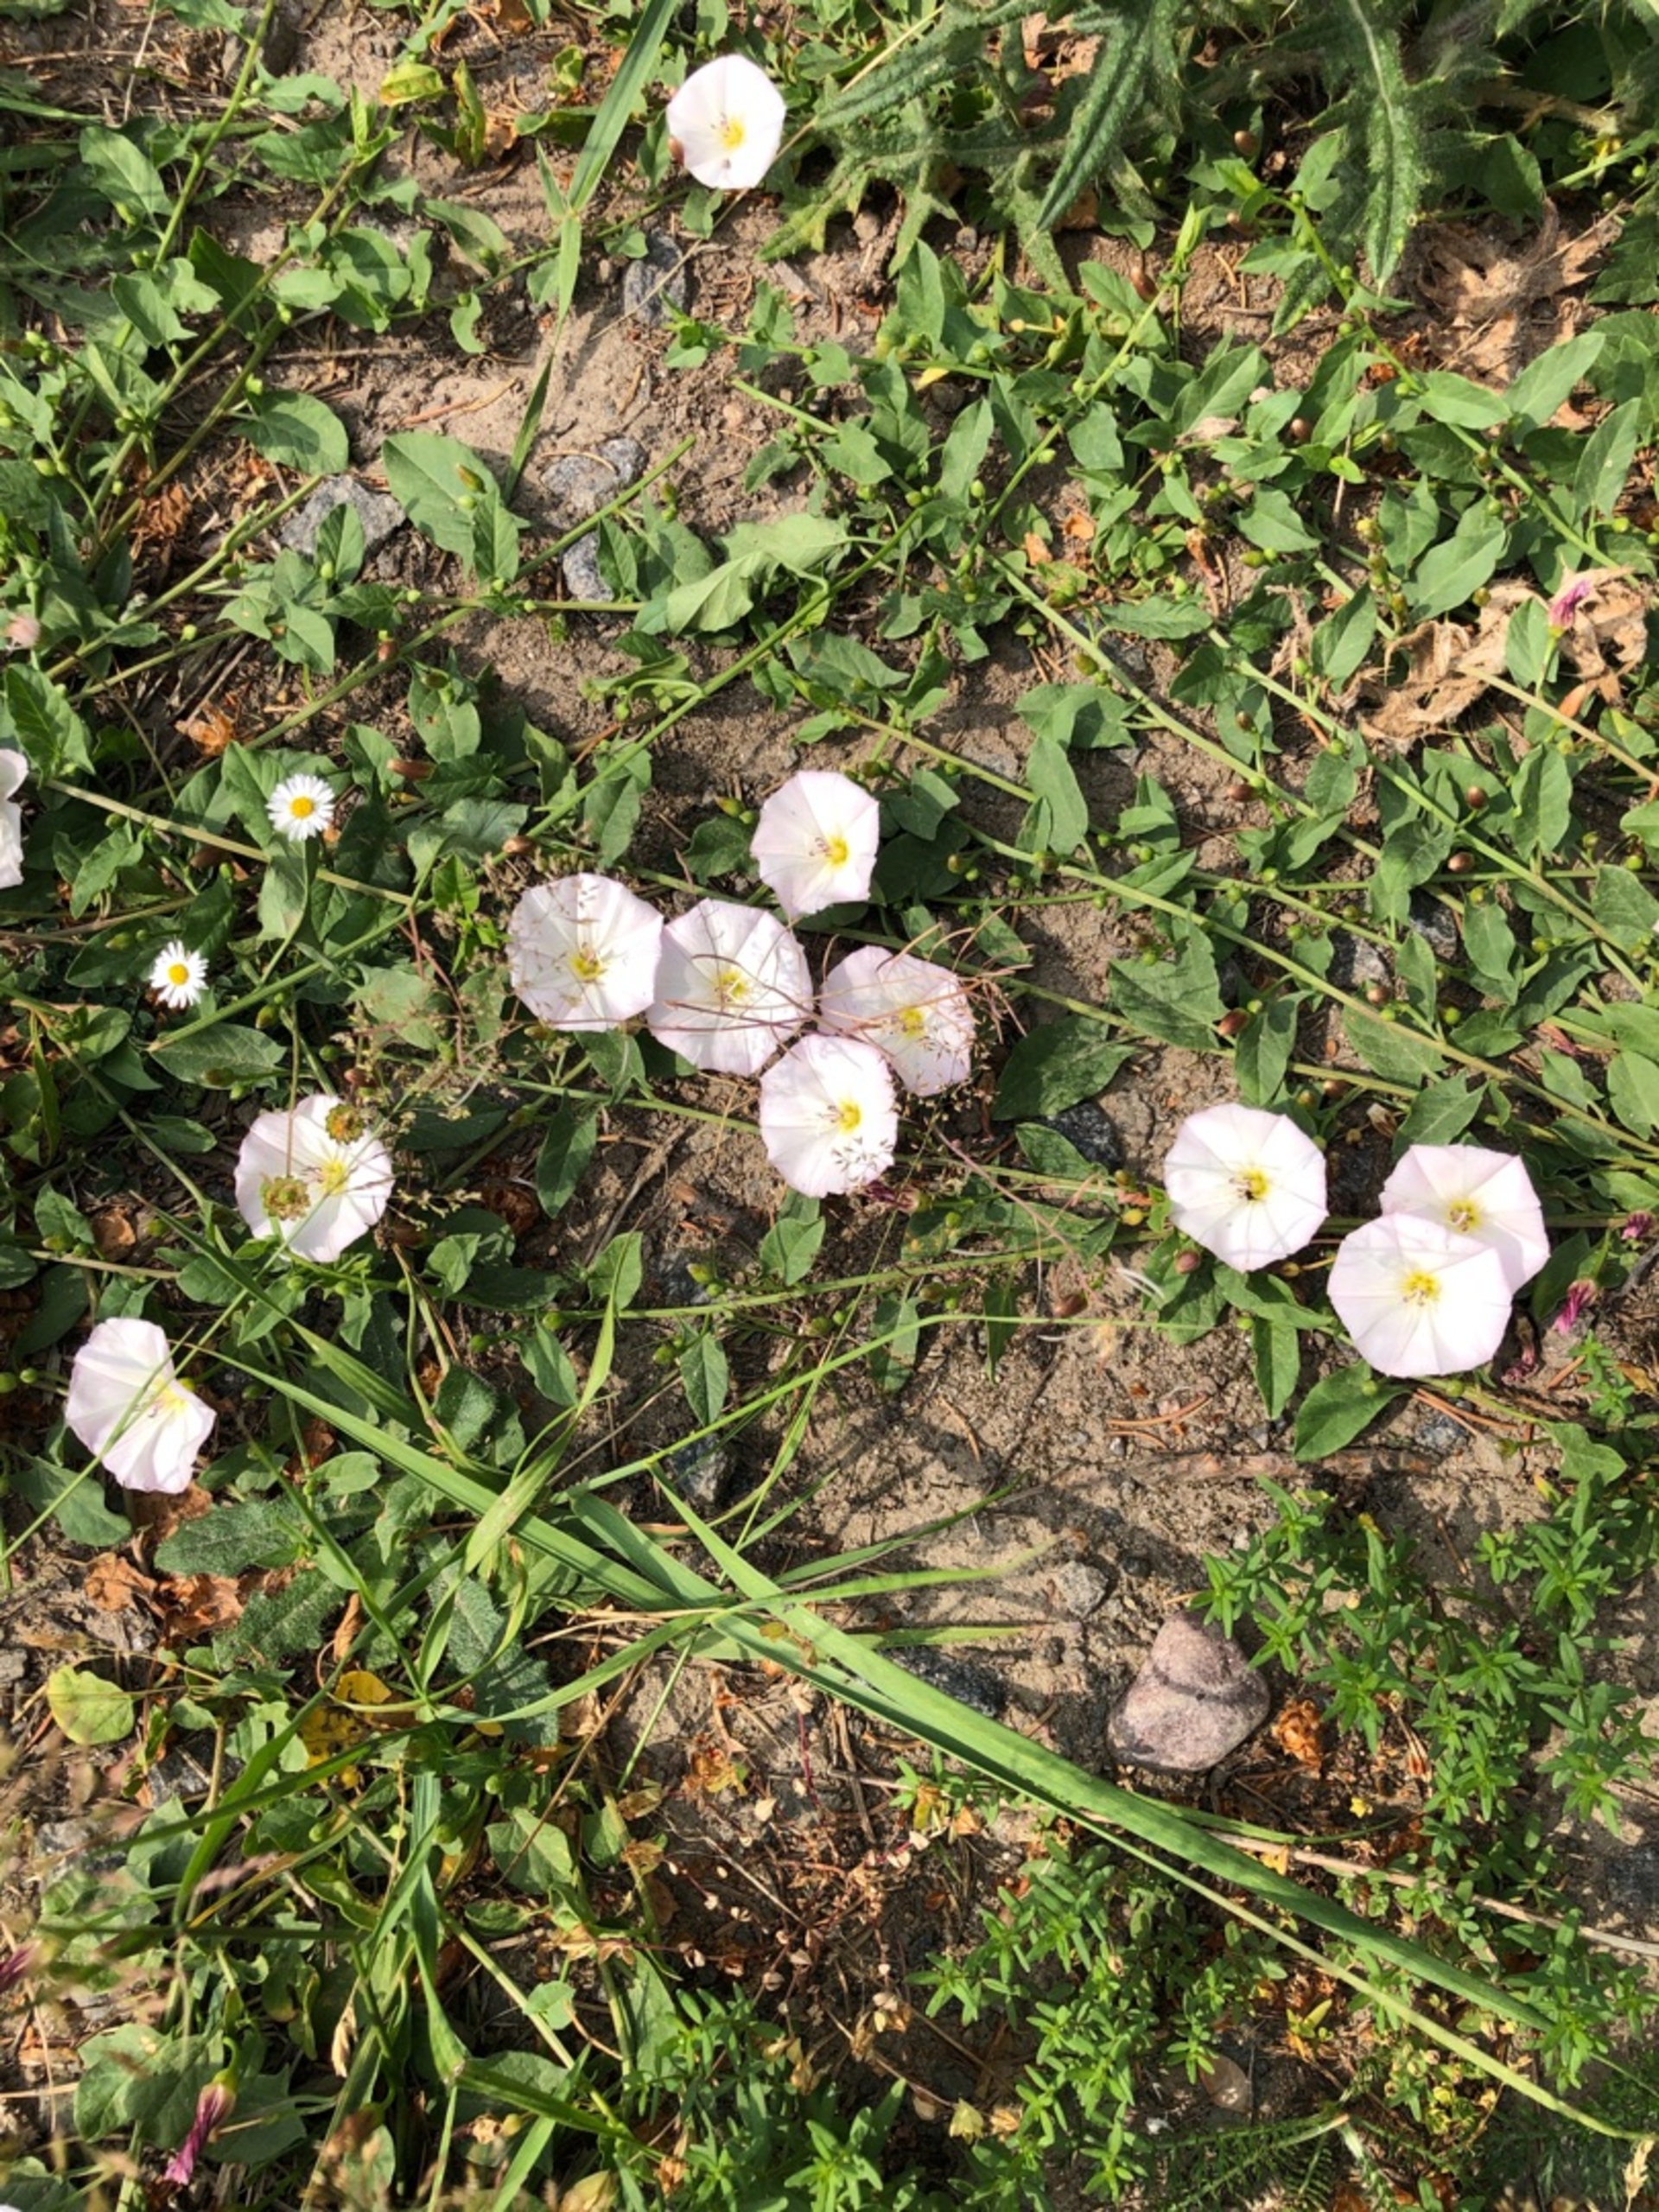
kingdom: Plantae
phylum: Tracheophyta
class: Magnoliopsida
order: Solanales
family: Convolvulaceae
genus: Convolvulus
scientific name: Convolvulus arvensis
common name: Ager-snerle
